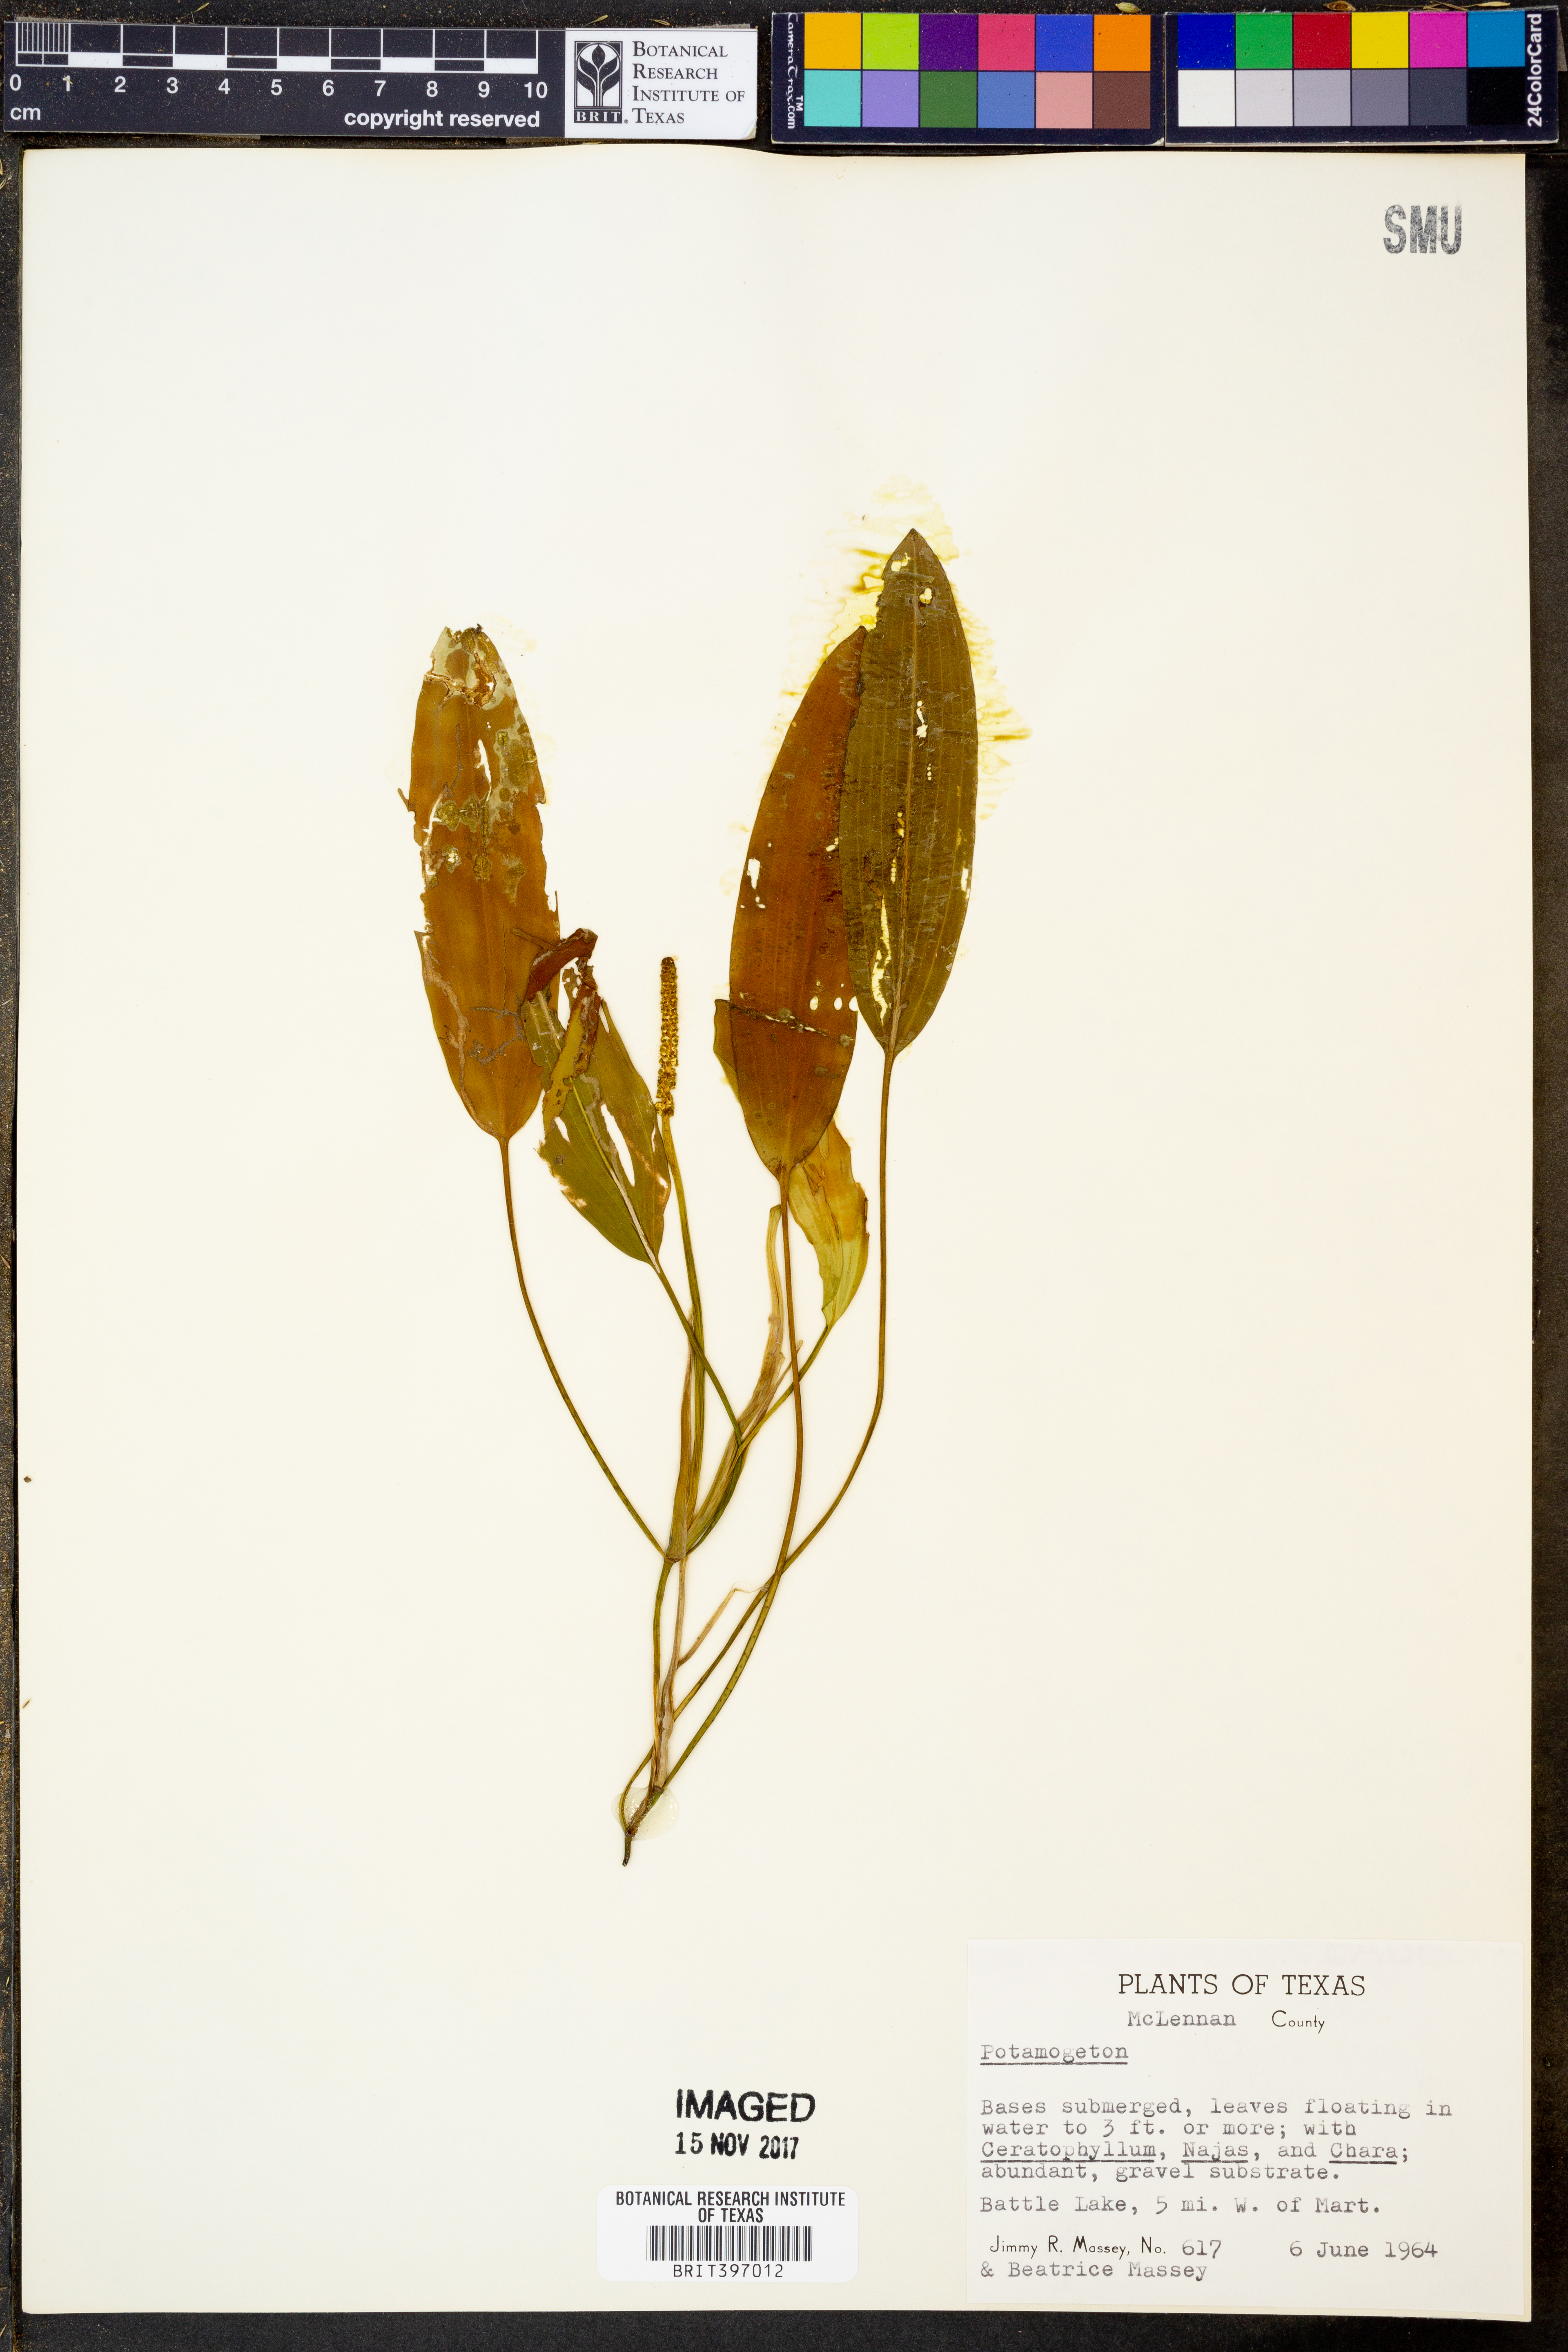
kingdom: Plantae
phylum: Tracheophyta
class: Liliopsida
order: Alismatales
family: Potamogetonaceae
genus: Potamogeton
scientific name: Potamogeton
